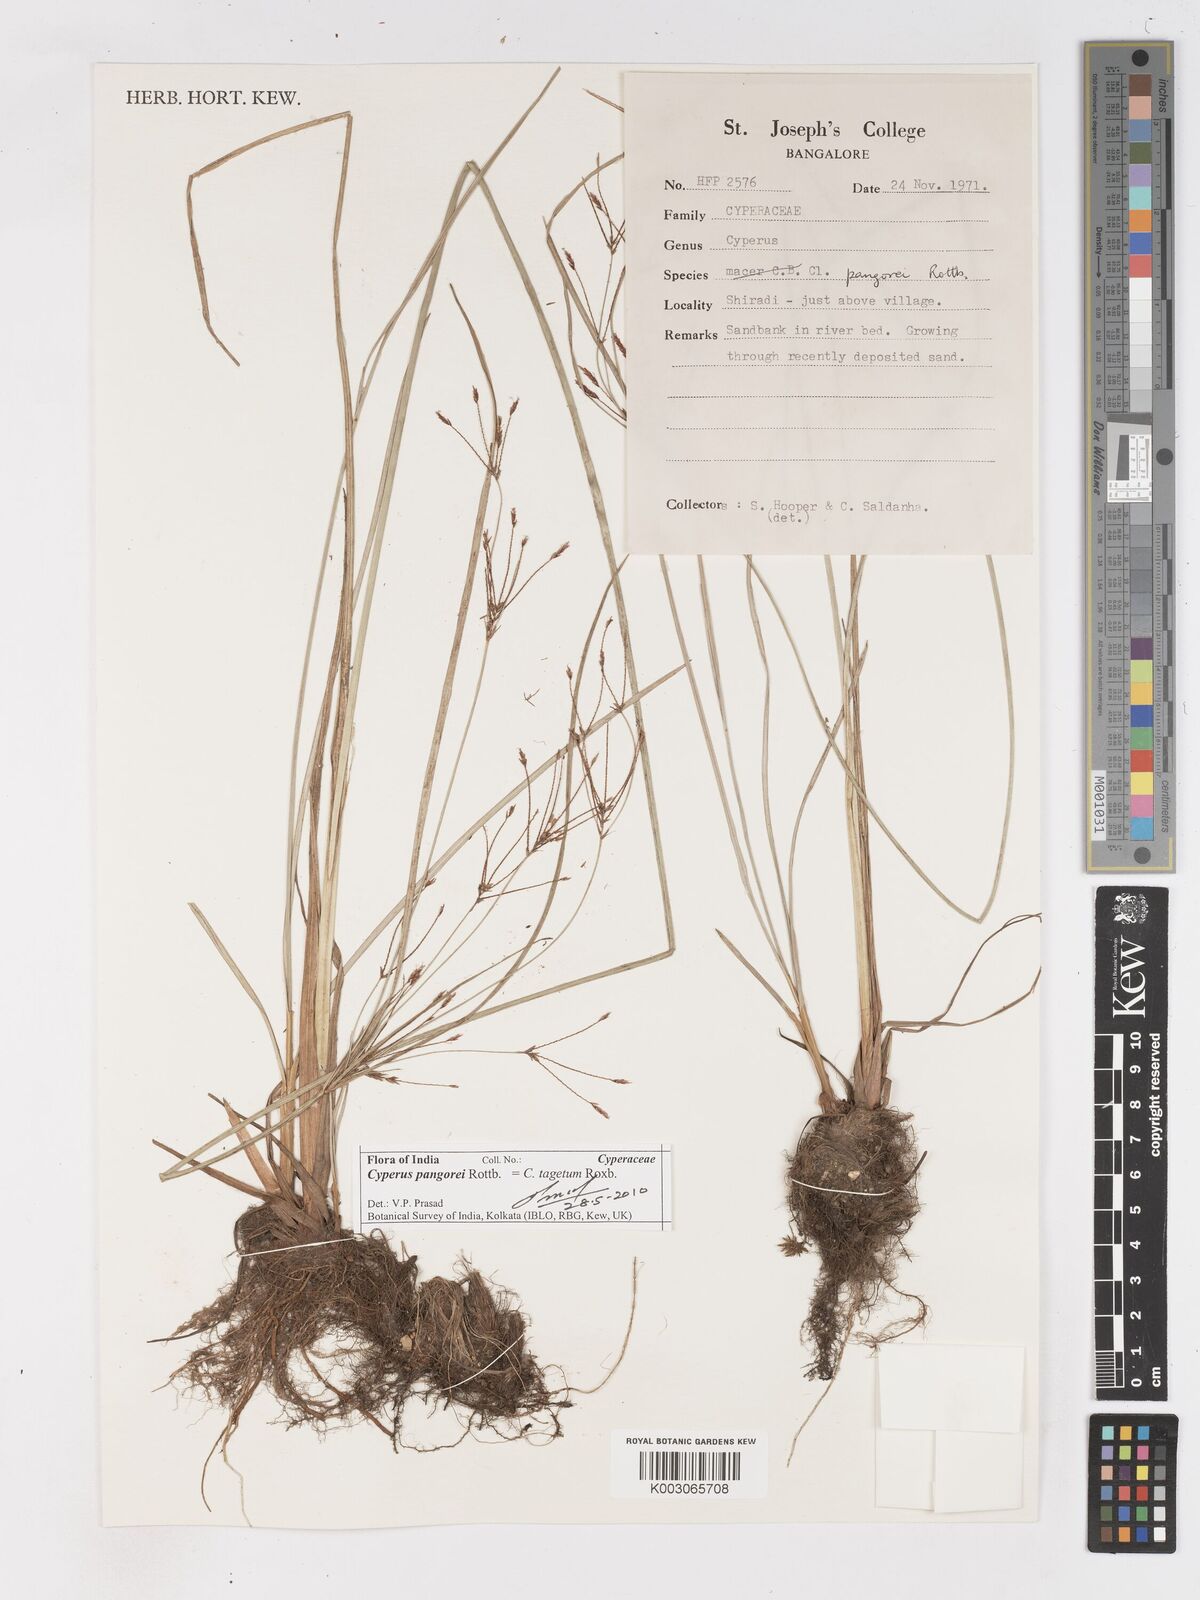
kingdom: Plantae
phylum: Tracheophyta
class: Liliopsida
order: Poales
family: Cyperaceae
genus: Cyperus
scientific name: Cyperus pangorei
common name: Mat sedge
